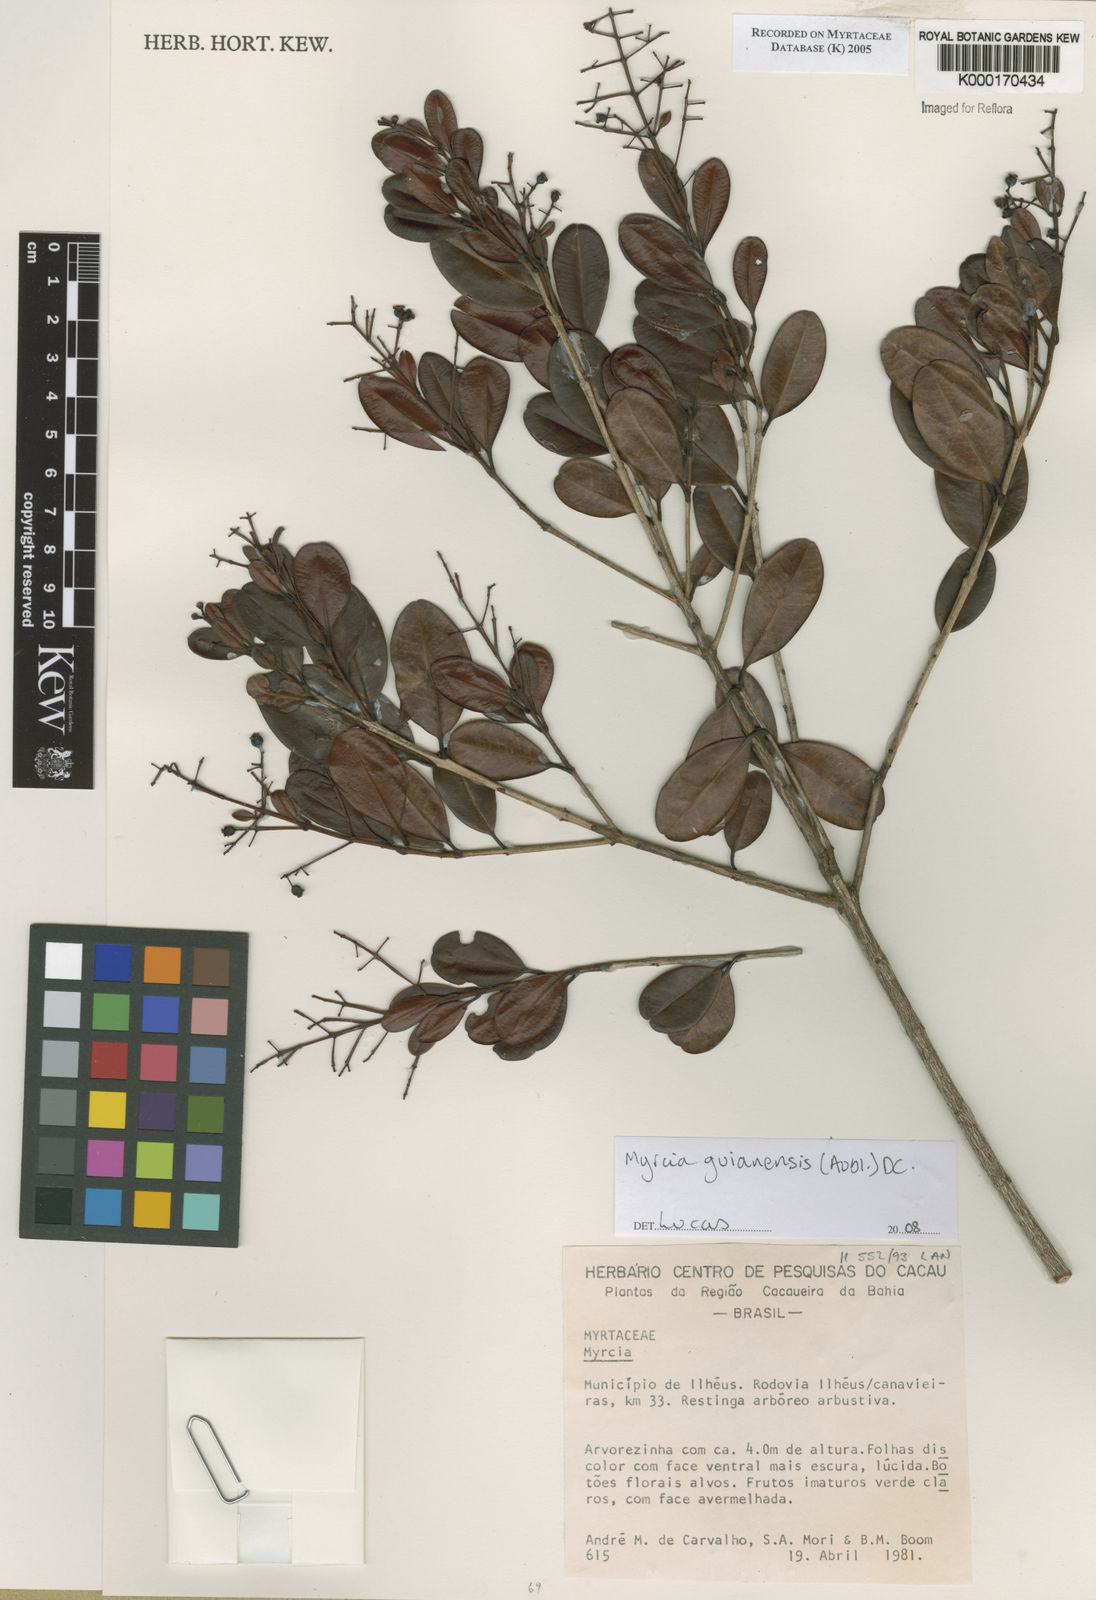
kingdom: Plantae
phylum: Tracheophyta
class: Magnoliopsida
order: Myrtales
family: Myrtaceae
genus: Myrcia
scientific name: Myrcia obovata
